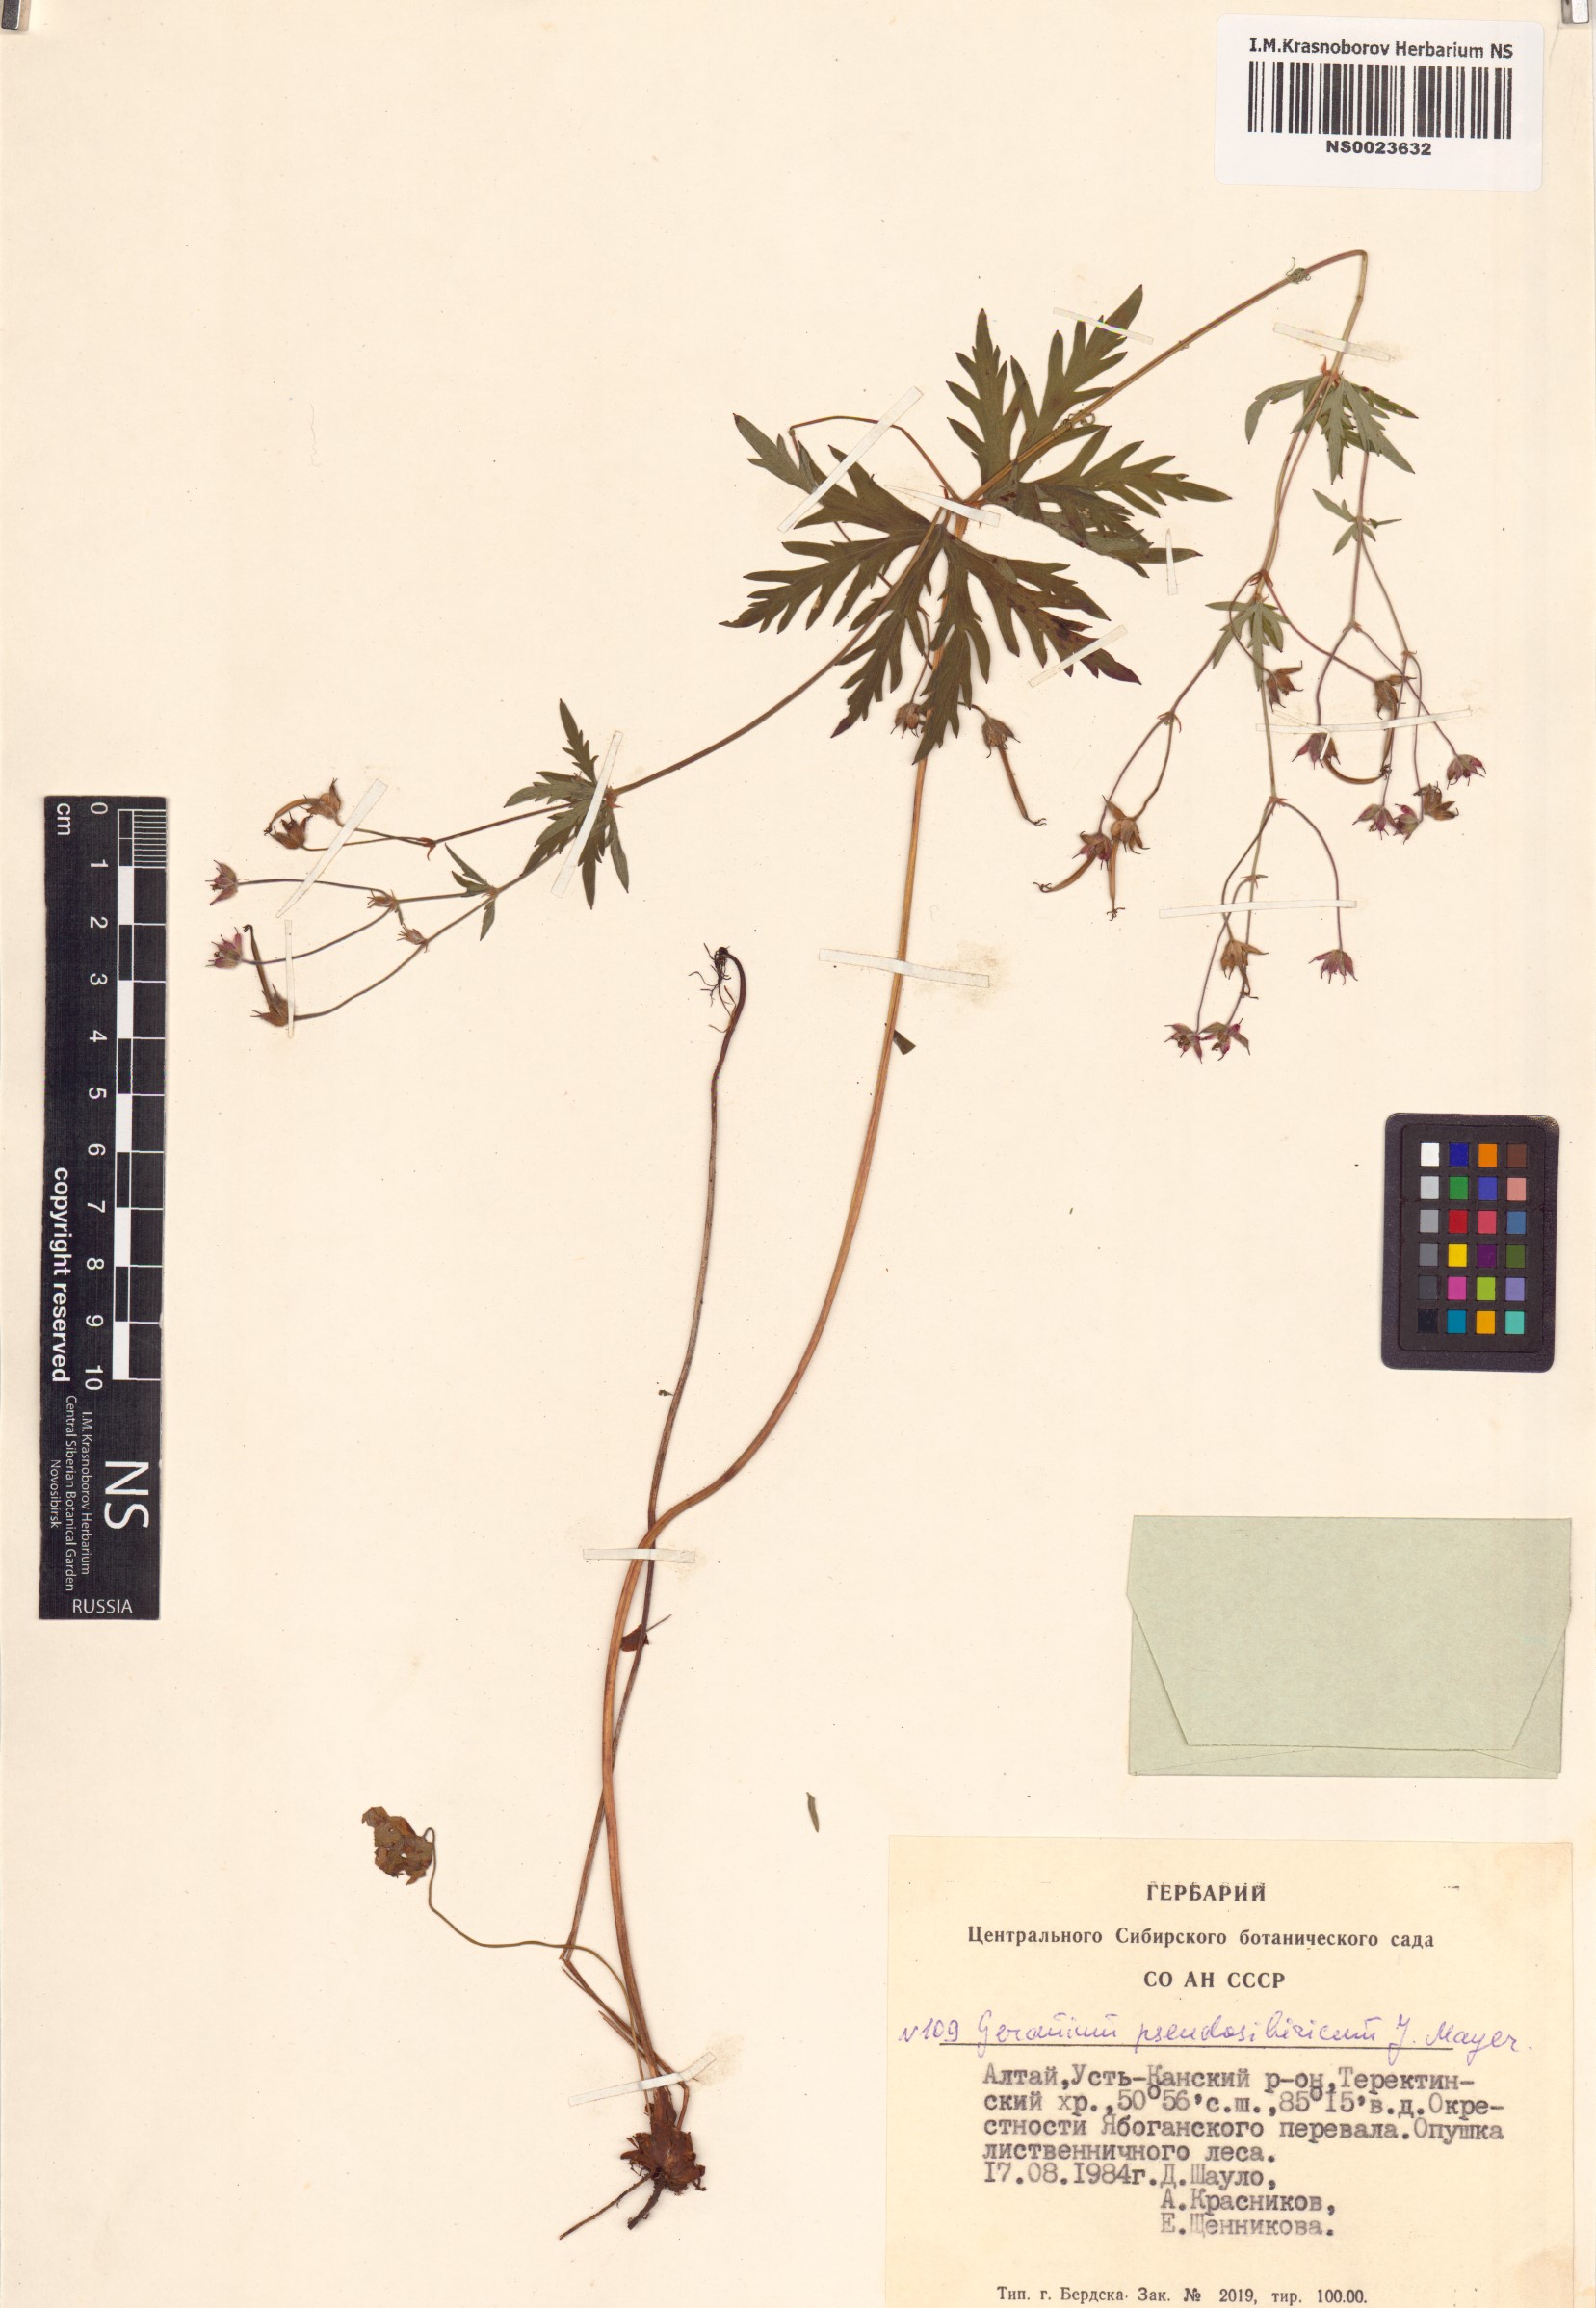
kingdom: Plantae
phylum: Tracheophyta
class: Magnoliopsida
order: Geraniales
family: Geraniaceae
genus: Geranium
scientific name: Geranium pseudosibiricum
